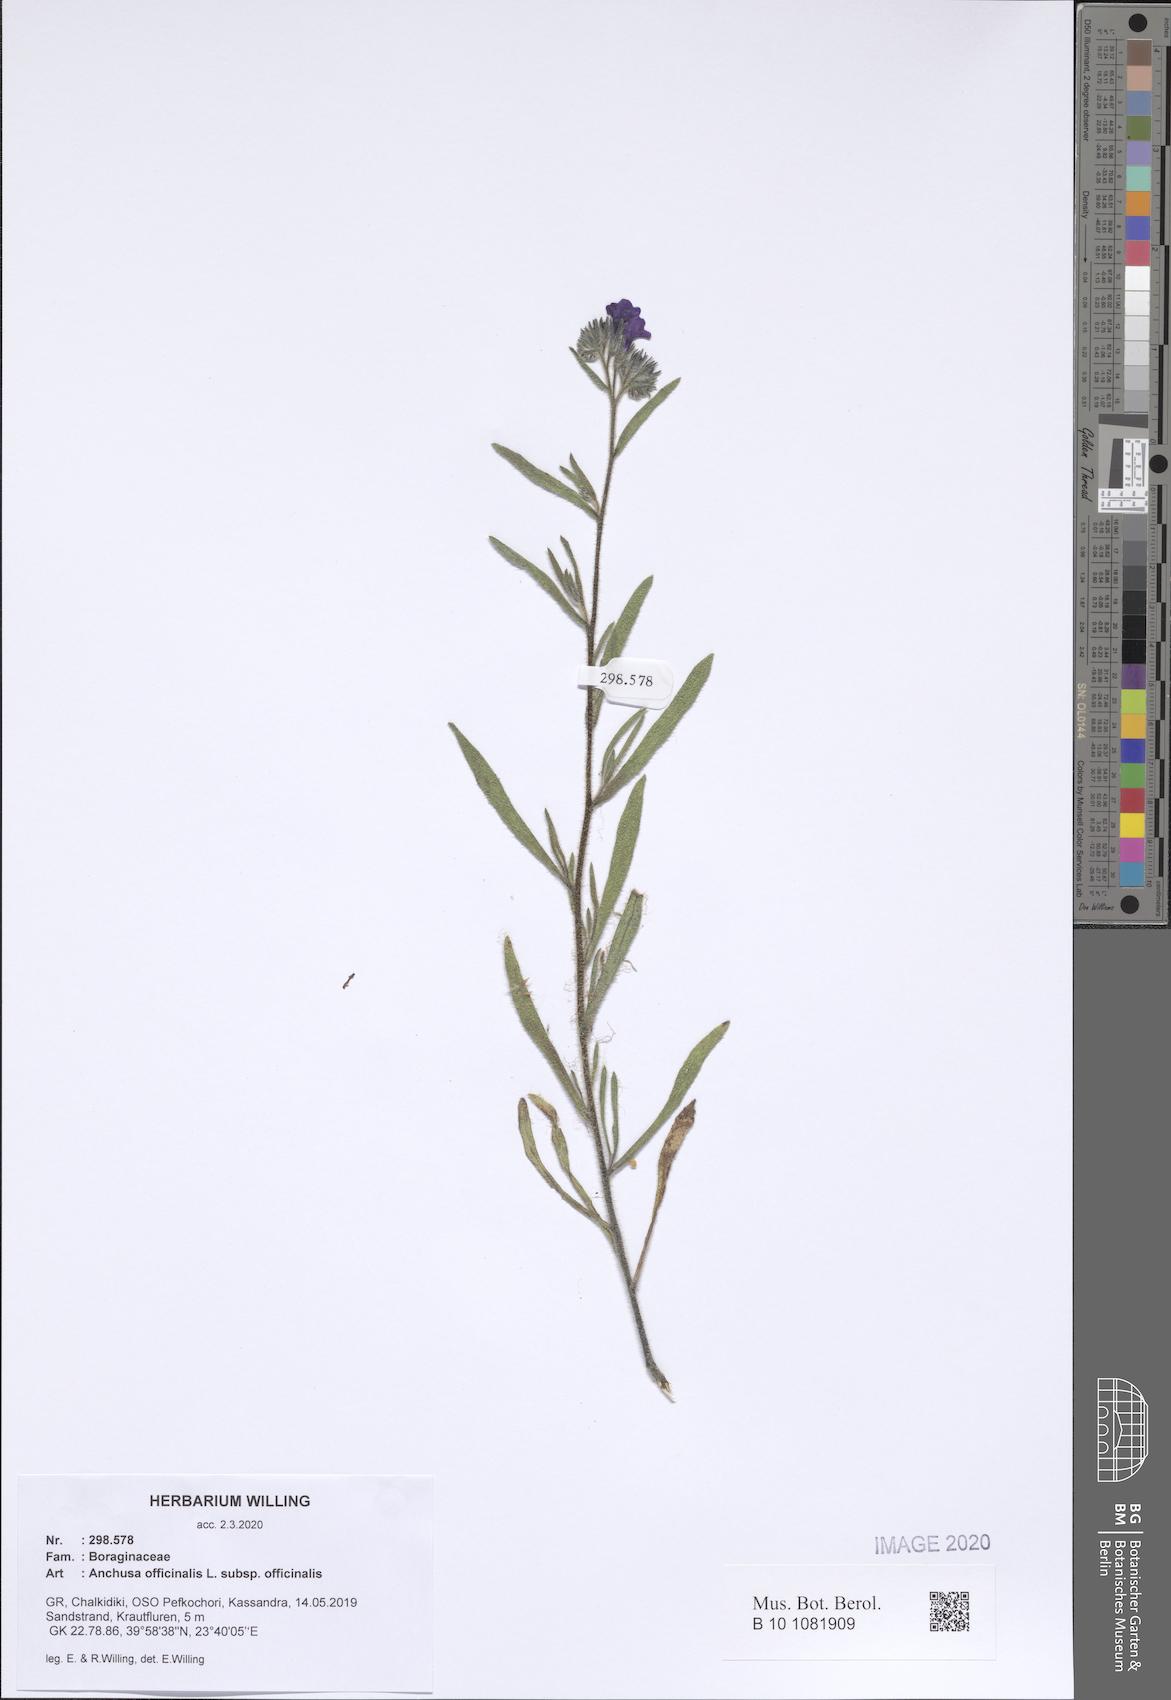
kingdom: Plantae
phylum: Tracheophyta
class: Magnoliopsida
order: Boraginales
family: Boraginaceae
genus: Anchusa
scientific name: Anchusa officinalis
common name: Alkanet
